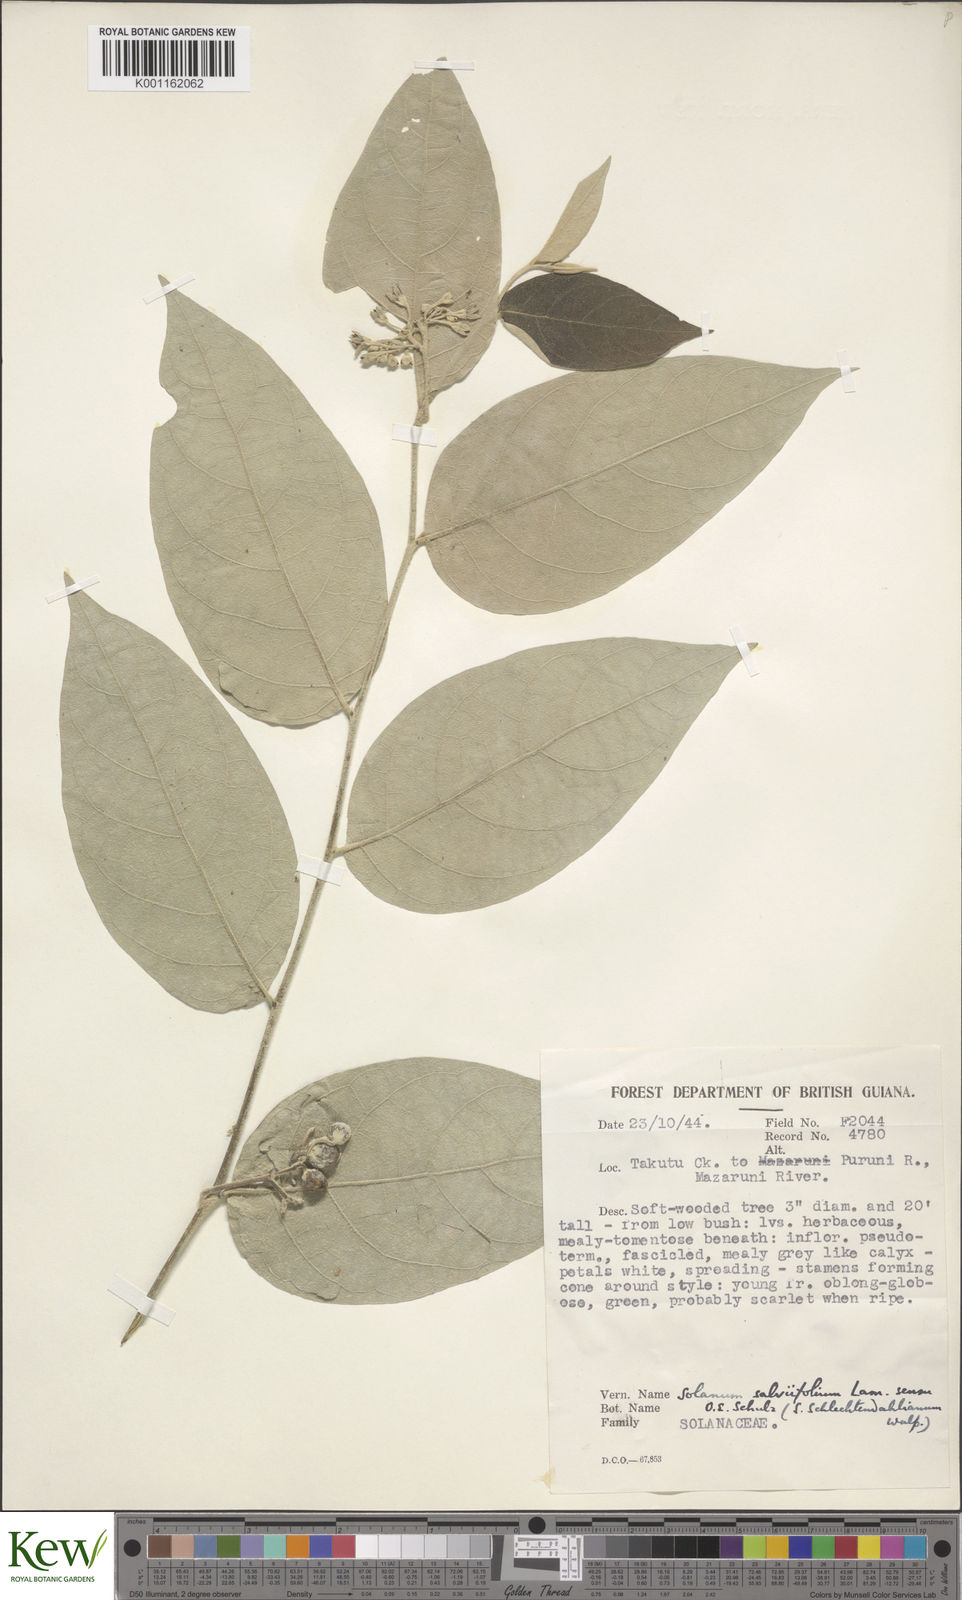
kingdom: Plantae
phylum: Tracheophyta
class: Magnoliopsida
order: Solanales
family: Solanaceae
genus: Solanum
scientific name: Solanum schlechtendalianum
